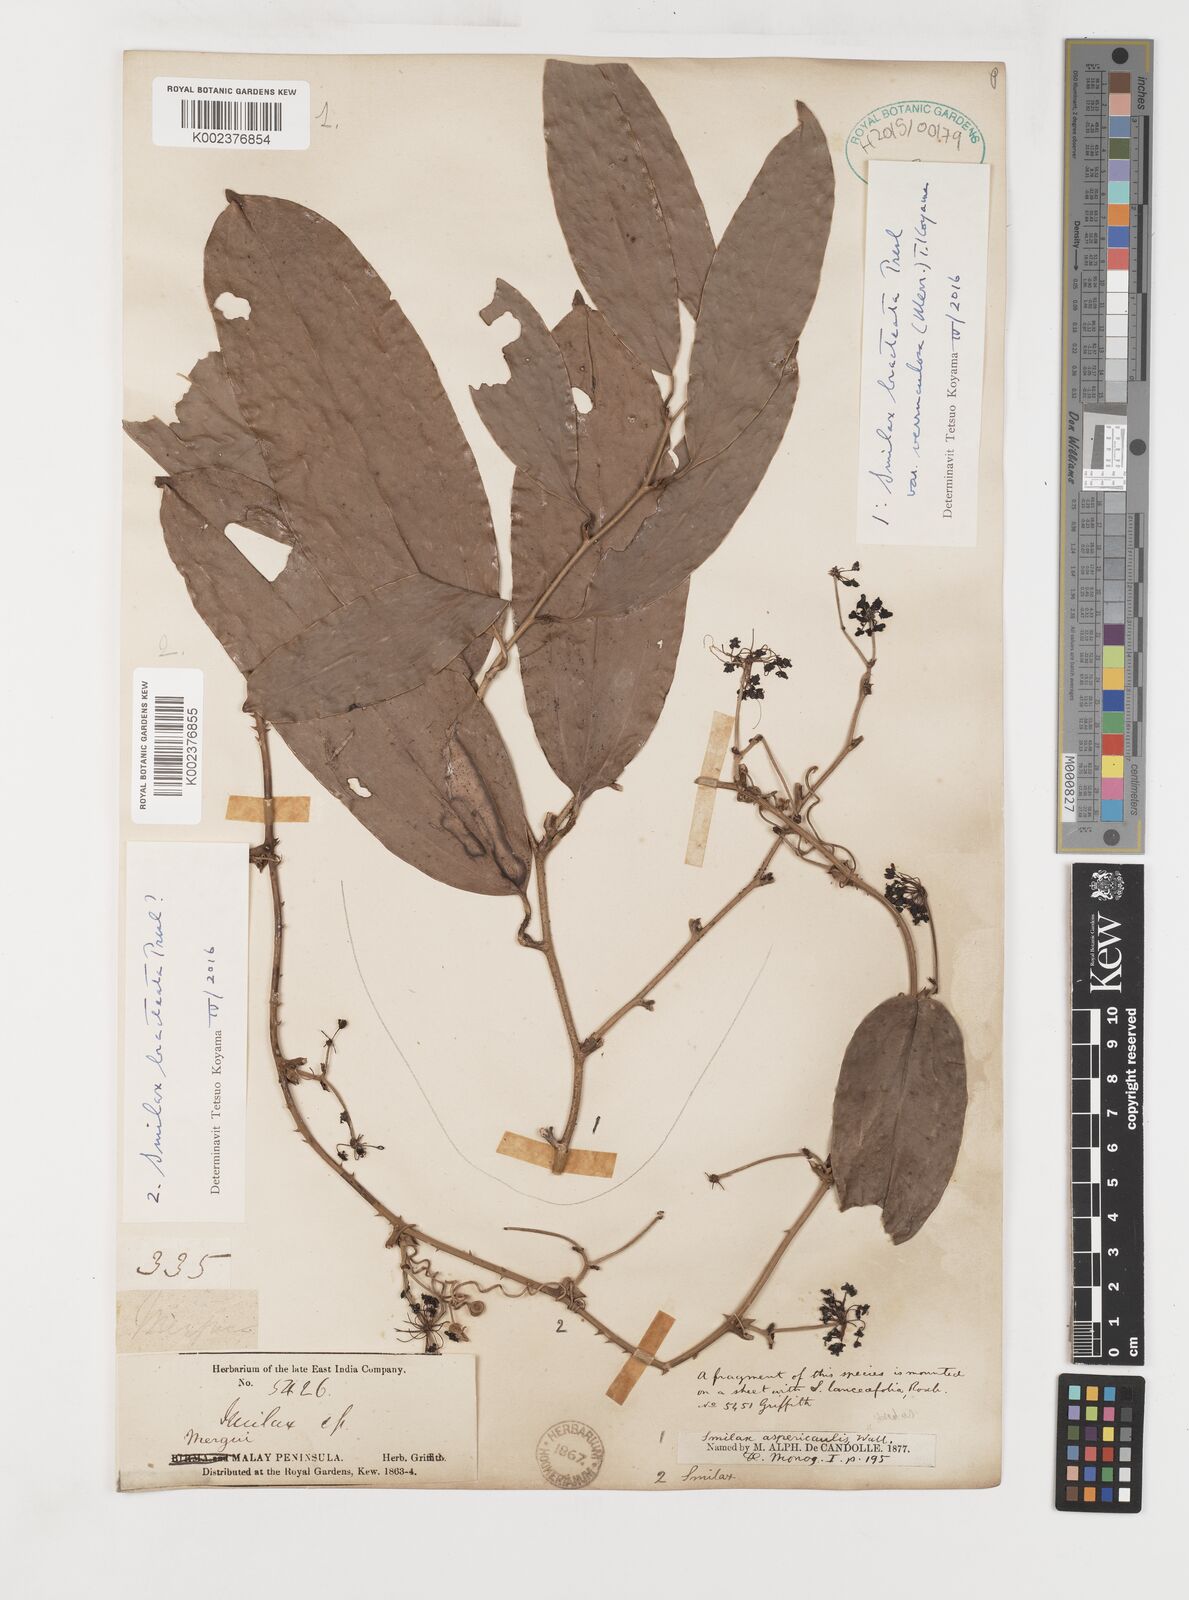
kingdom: Plantae
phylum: Tracheophyta
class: Liliopsida
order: Liliales
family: Smilacaceae
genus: Smilax
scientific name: Smilax bracteata
